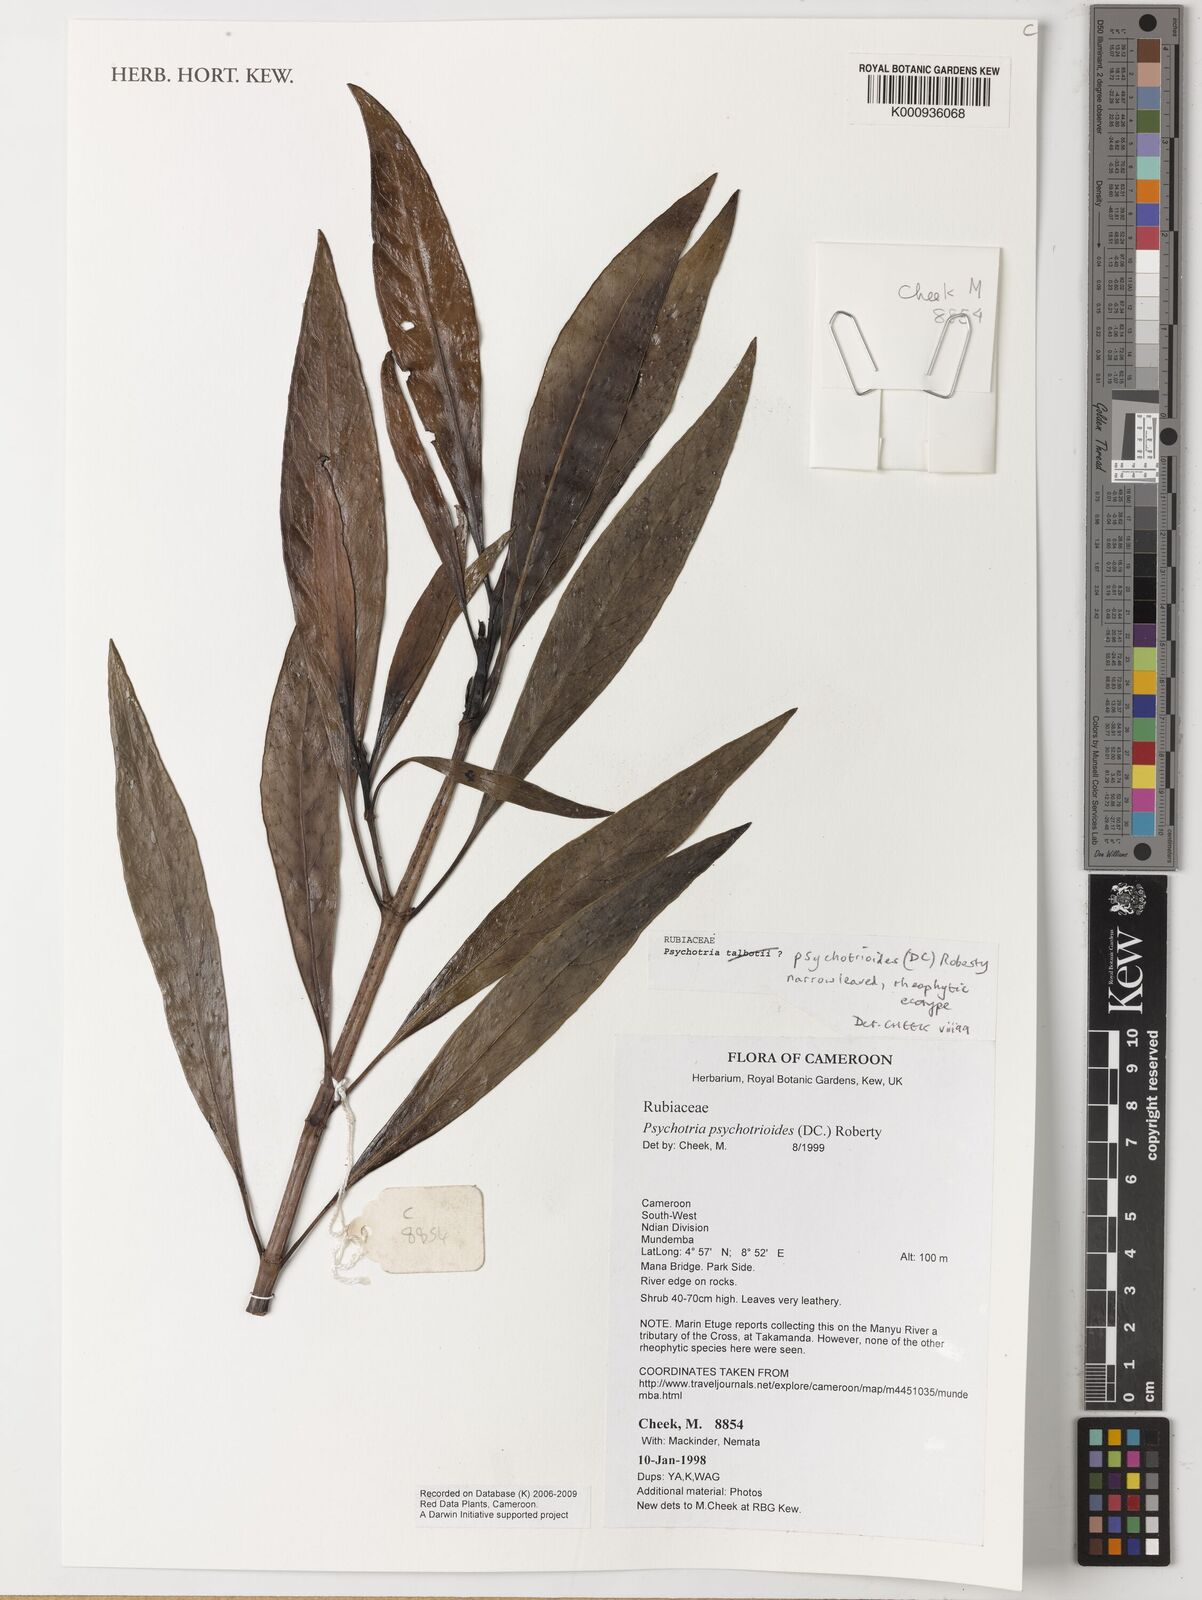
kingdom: Plantae
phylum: Tracheophyta
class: Magnoliopsida
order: Gentianales
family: Rubiaceae
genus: Psychotria
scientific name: Psychotria psychotrioides
